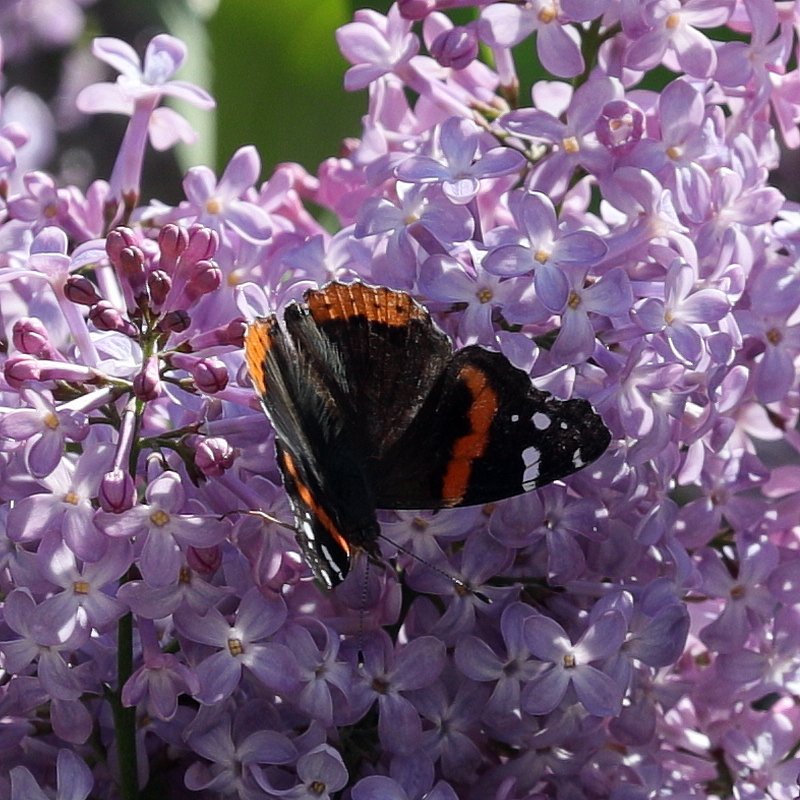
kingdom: Animalia
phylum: Arthropoda
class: Insecta
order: Lepidoptera
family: Nymphalidae
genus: Vanessa
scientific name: Vanessa atalanta
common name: Red Admiral
